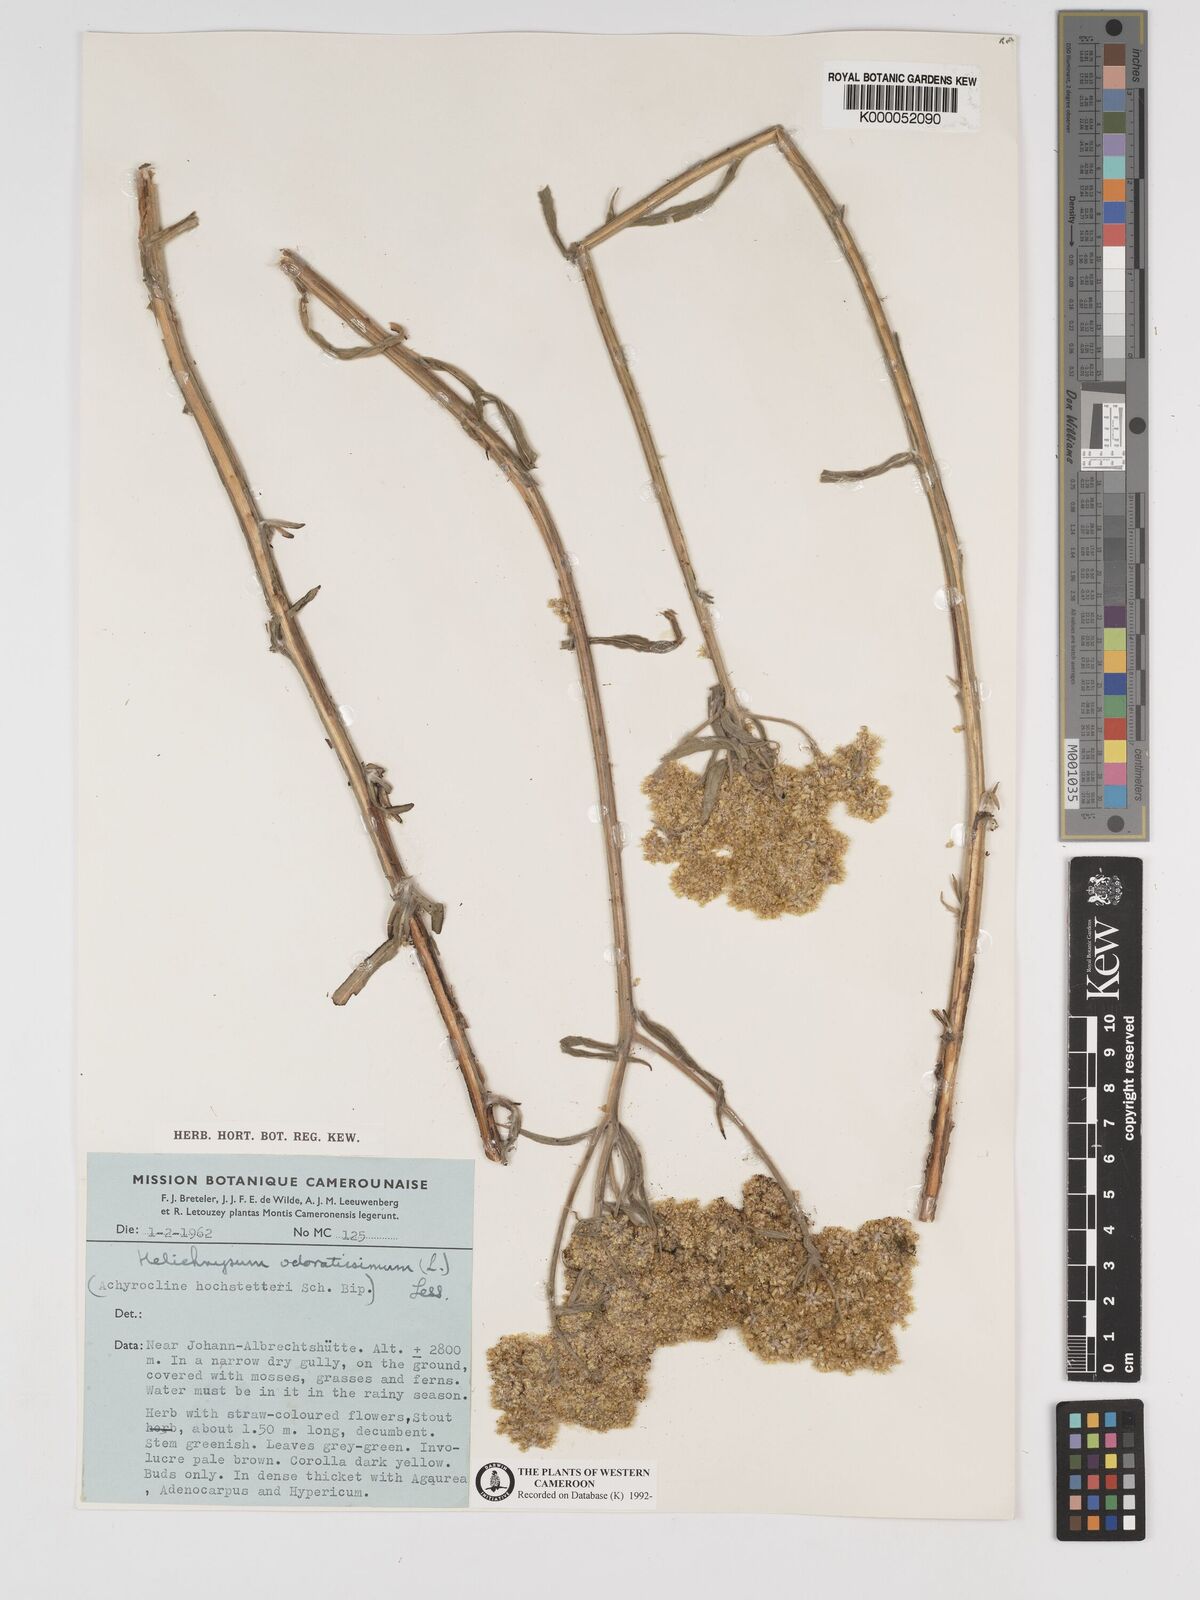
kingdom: Plantae
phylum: Tracheophyta
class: Magnoliopsida
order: Asterales
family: Asteraceae
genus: Helichrysum
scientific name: Helichrysum odoratissimum
